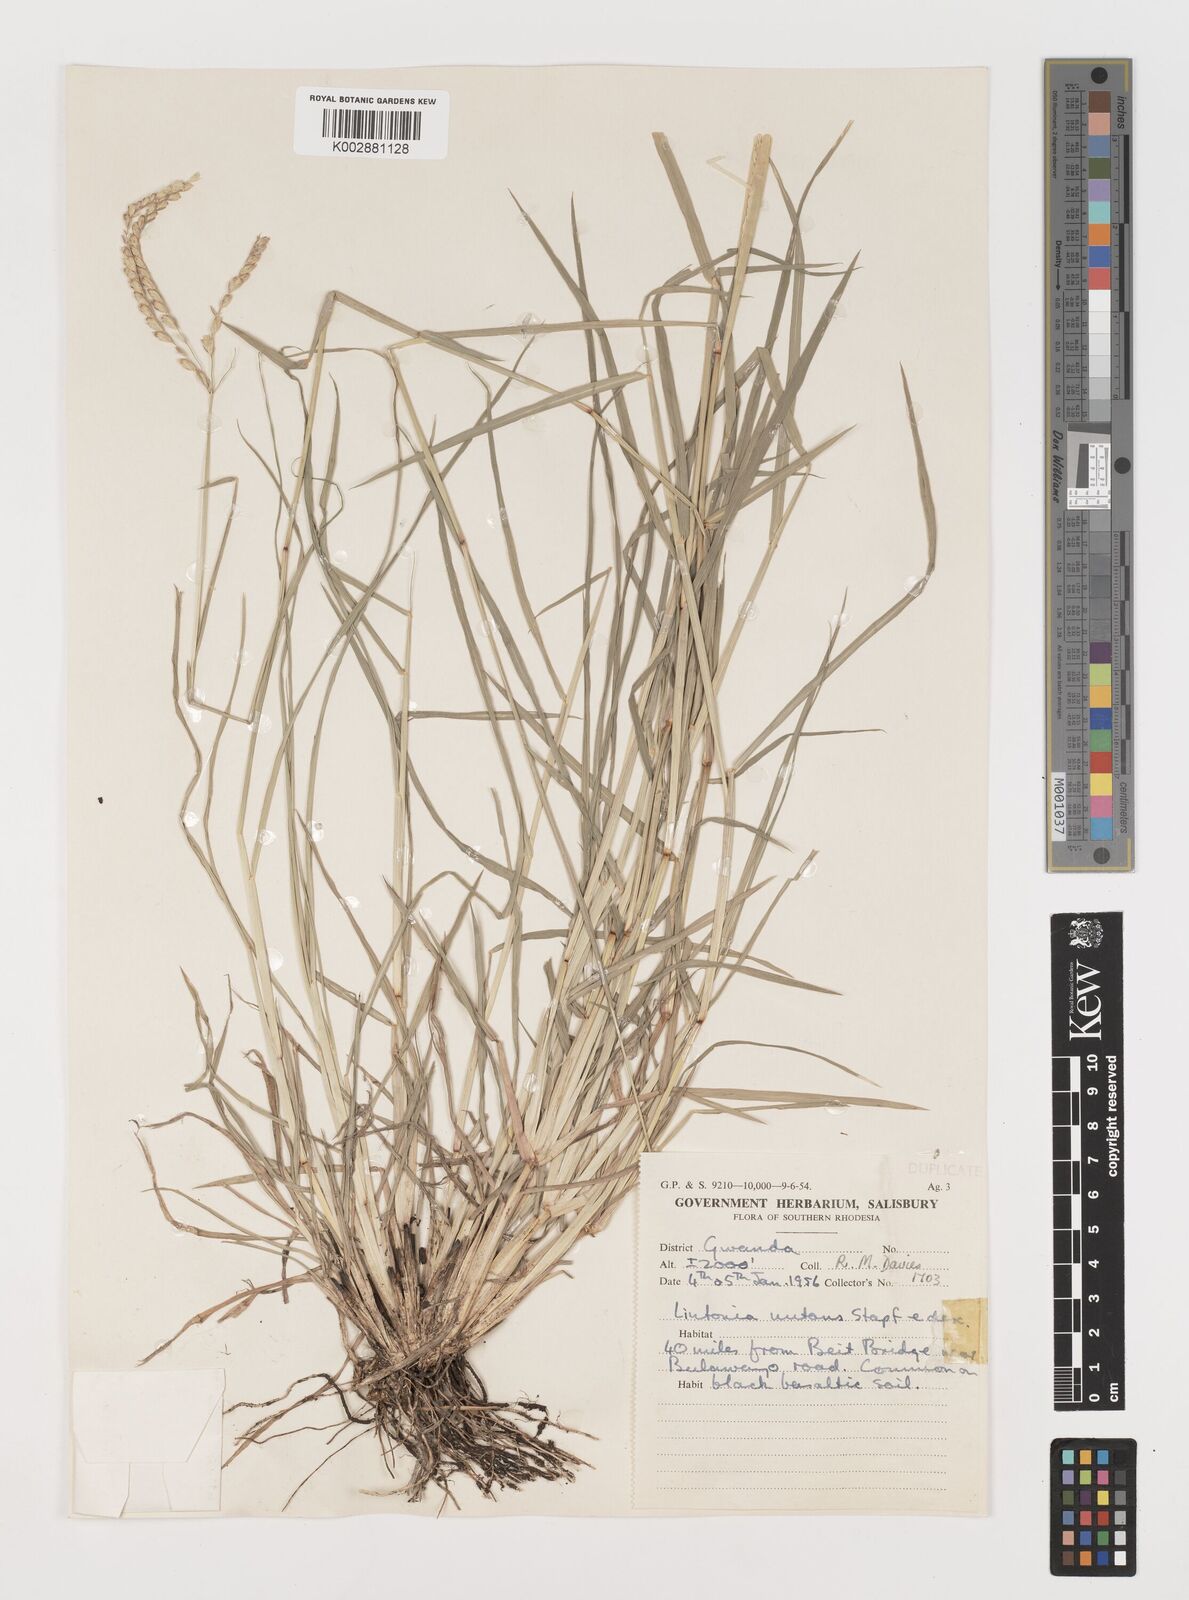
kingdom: Plantae
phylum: Tracheophyta
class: Liliopsida
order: Poales
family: Poaceae
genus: Chloris
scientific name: Chloris nutans
